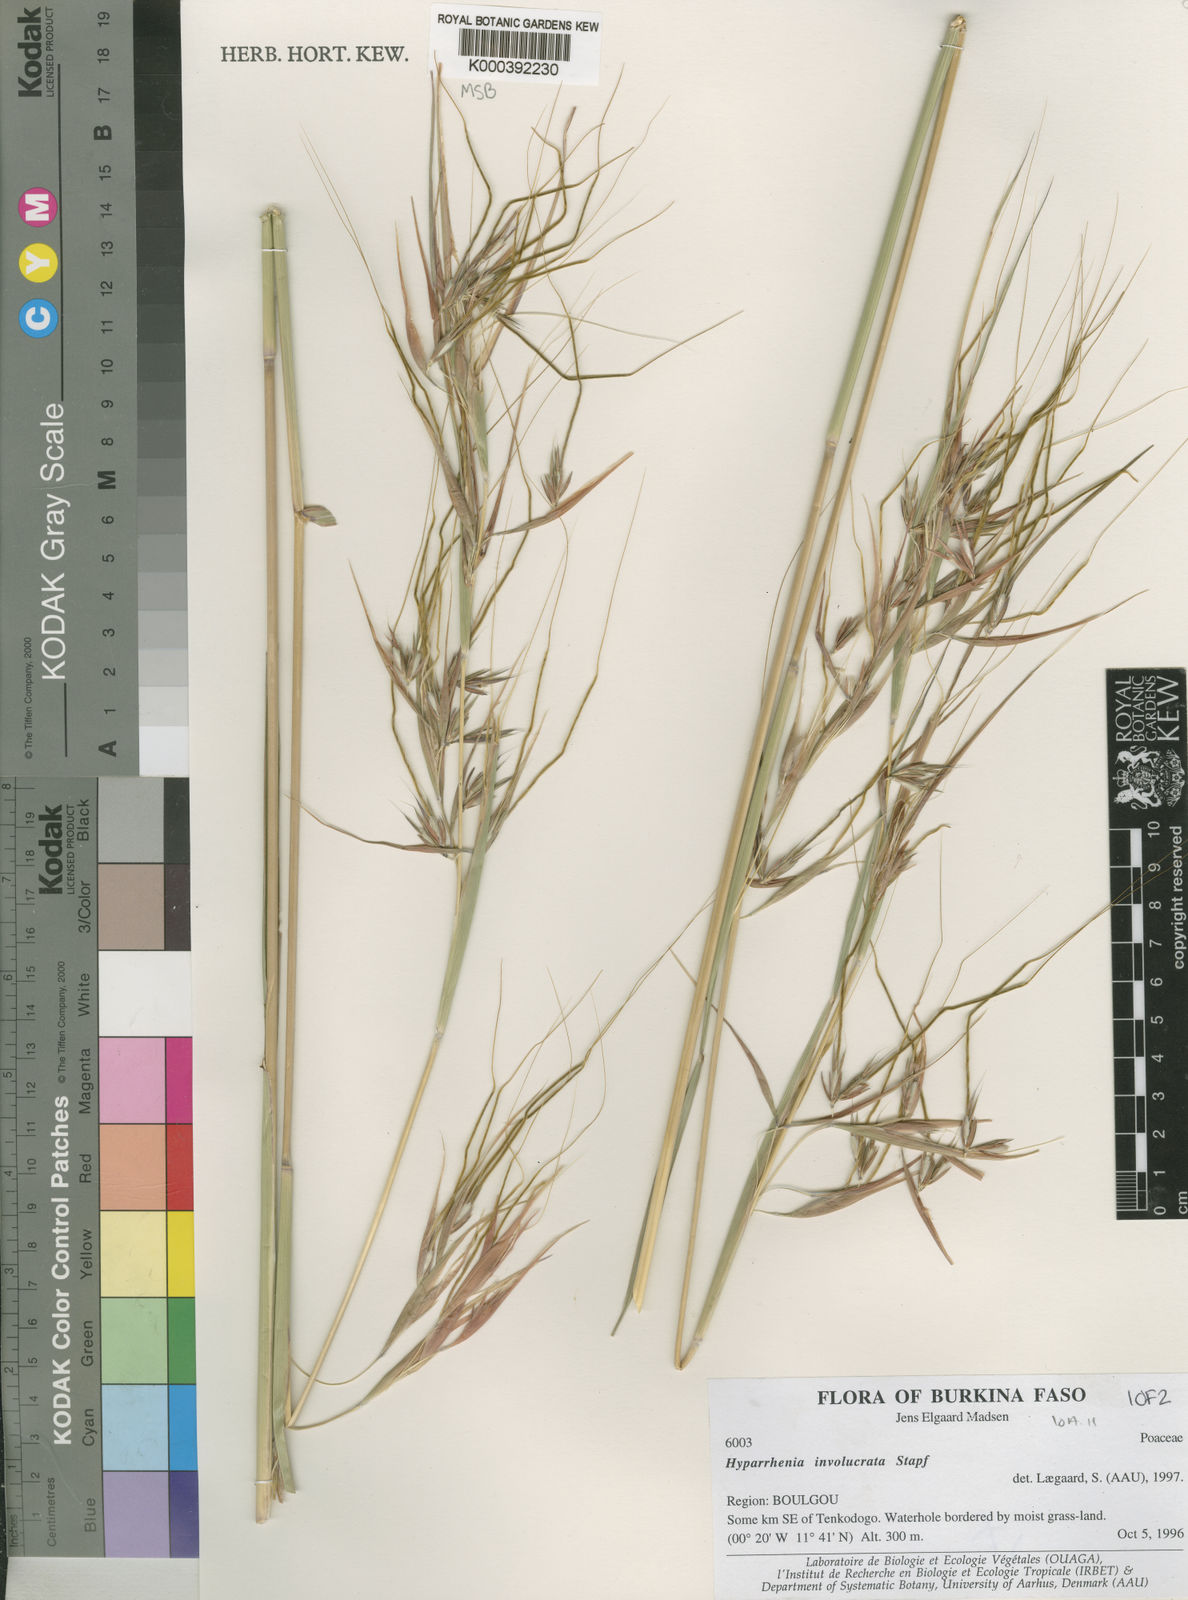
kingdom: Plantae
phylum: Tracheophyta
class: Liliopsida
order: Poales
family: Poaceae
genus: Hyparrhenia
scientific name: Hyparrhenia involucrata
